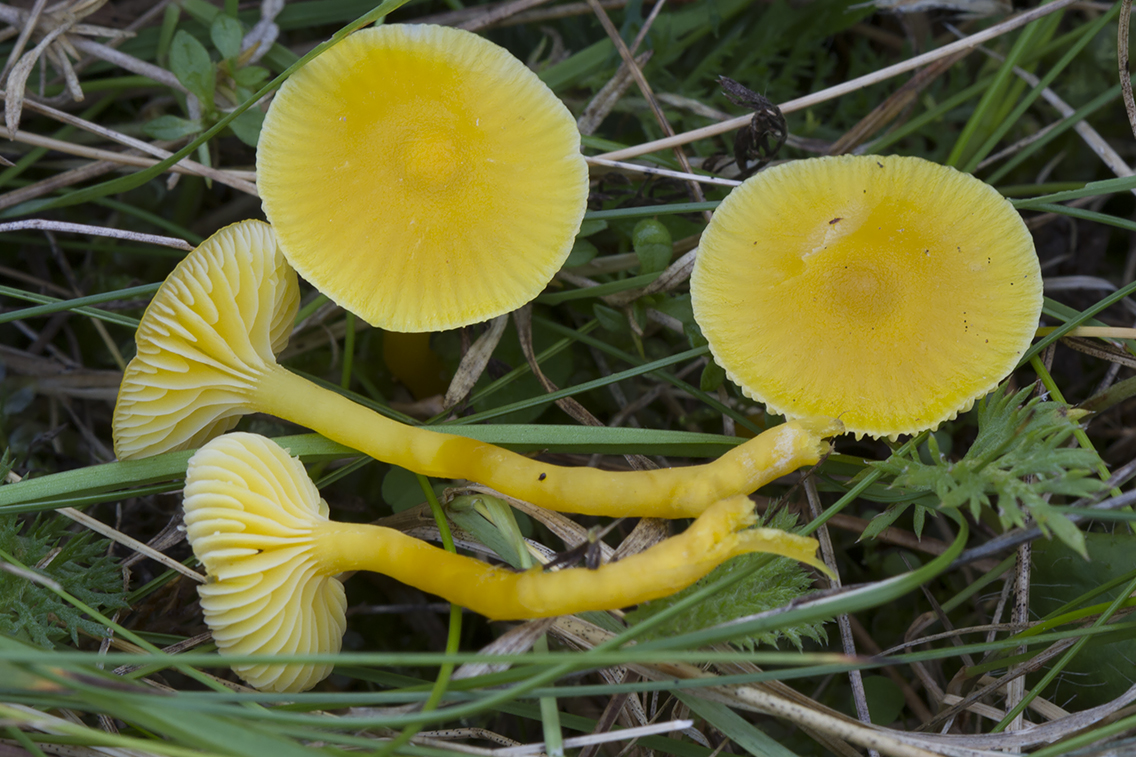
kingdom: Fungi
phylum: Basidiomycota
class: Agaricomycetes
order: Agaricales
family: Hygrophoraceae
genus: Hygrocybe
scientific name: Hygrocybe ceracea
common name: voksgul vokshat
